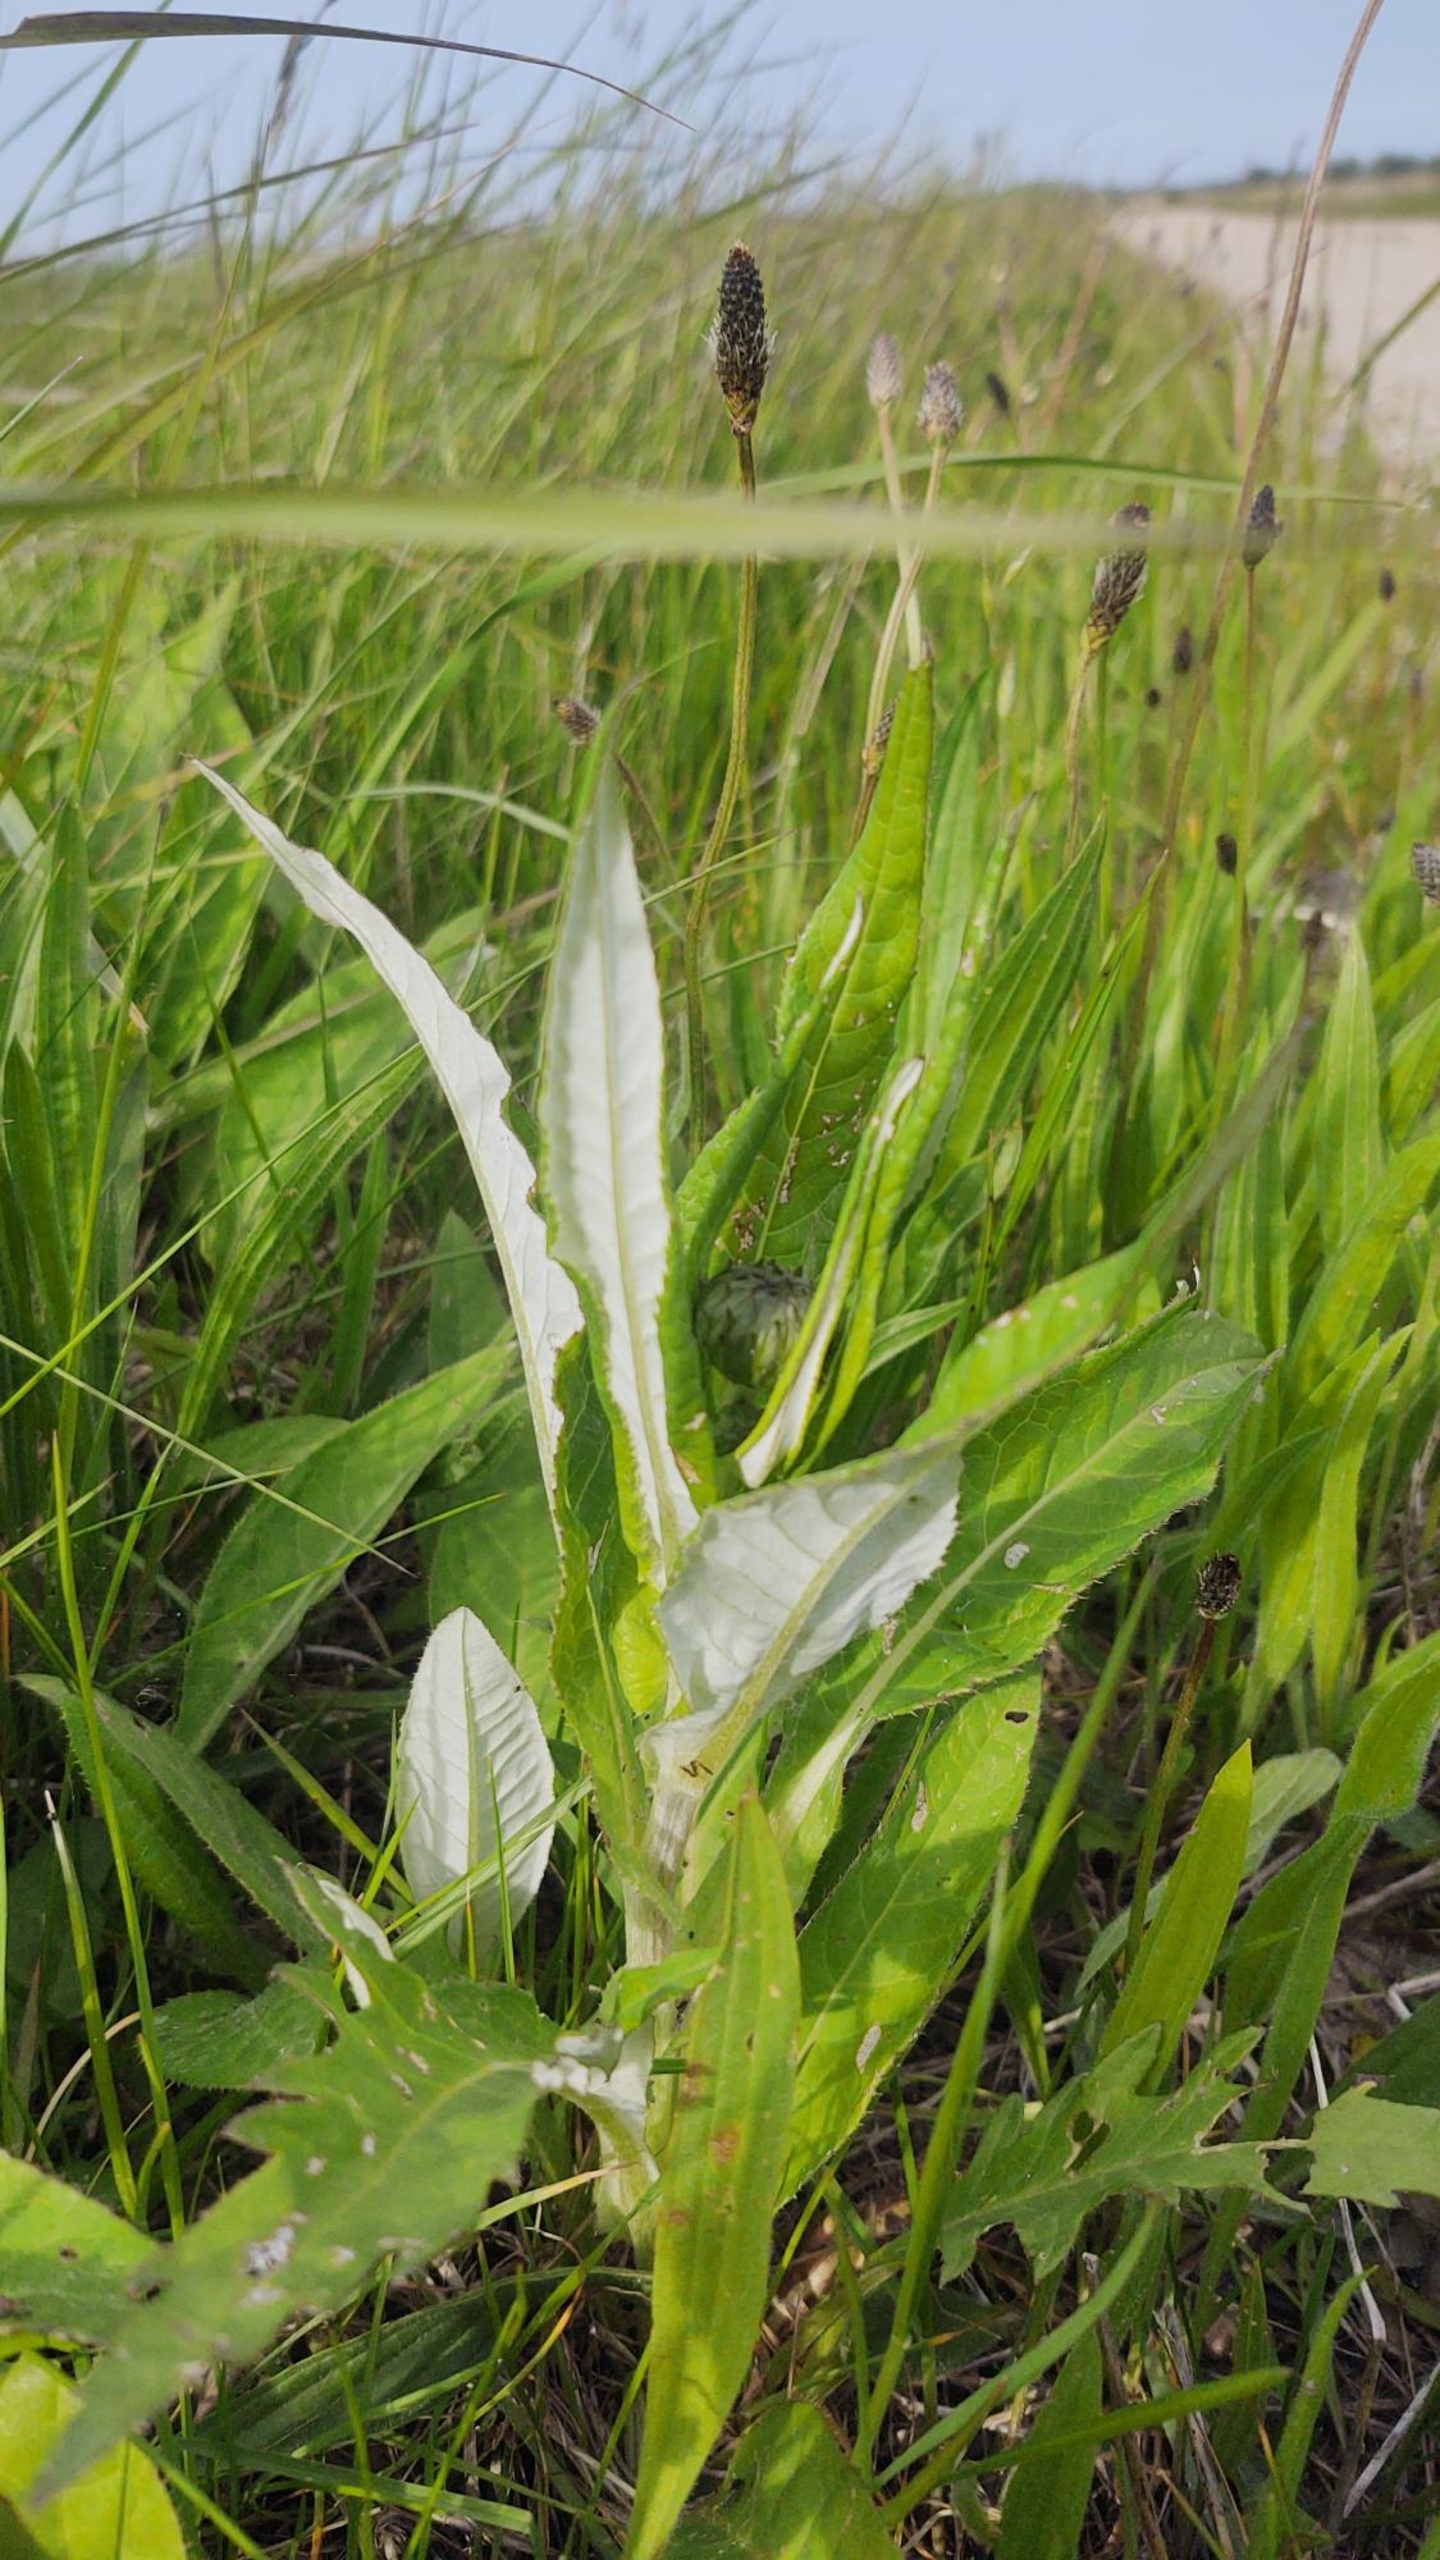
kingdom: Plantae
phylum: Tracheophyta
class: Magnoliopsida
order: Asterales
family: Asteraceae
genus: Cirsium
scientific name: Cirsium heterophyllum
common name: Forskelligbladet tidsel
